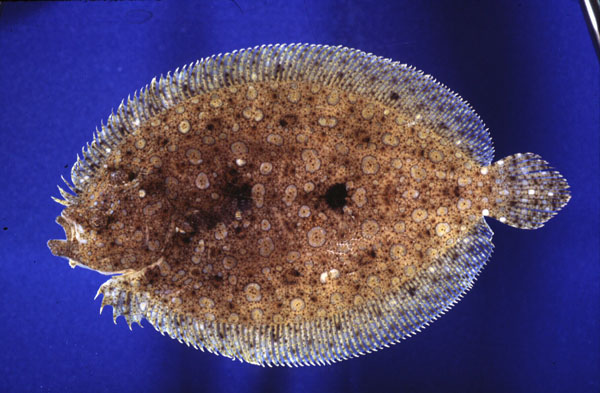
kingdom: Animalia
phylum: Chordata
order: Pleuronectiformes
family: Bothidae
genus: Bothus
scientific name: Bothus mancus
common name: Flowery flounder
